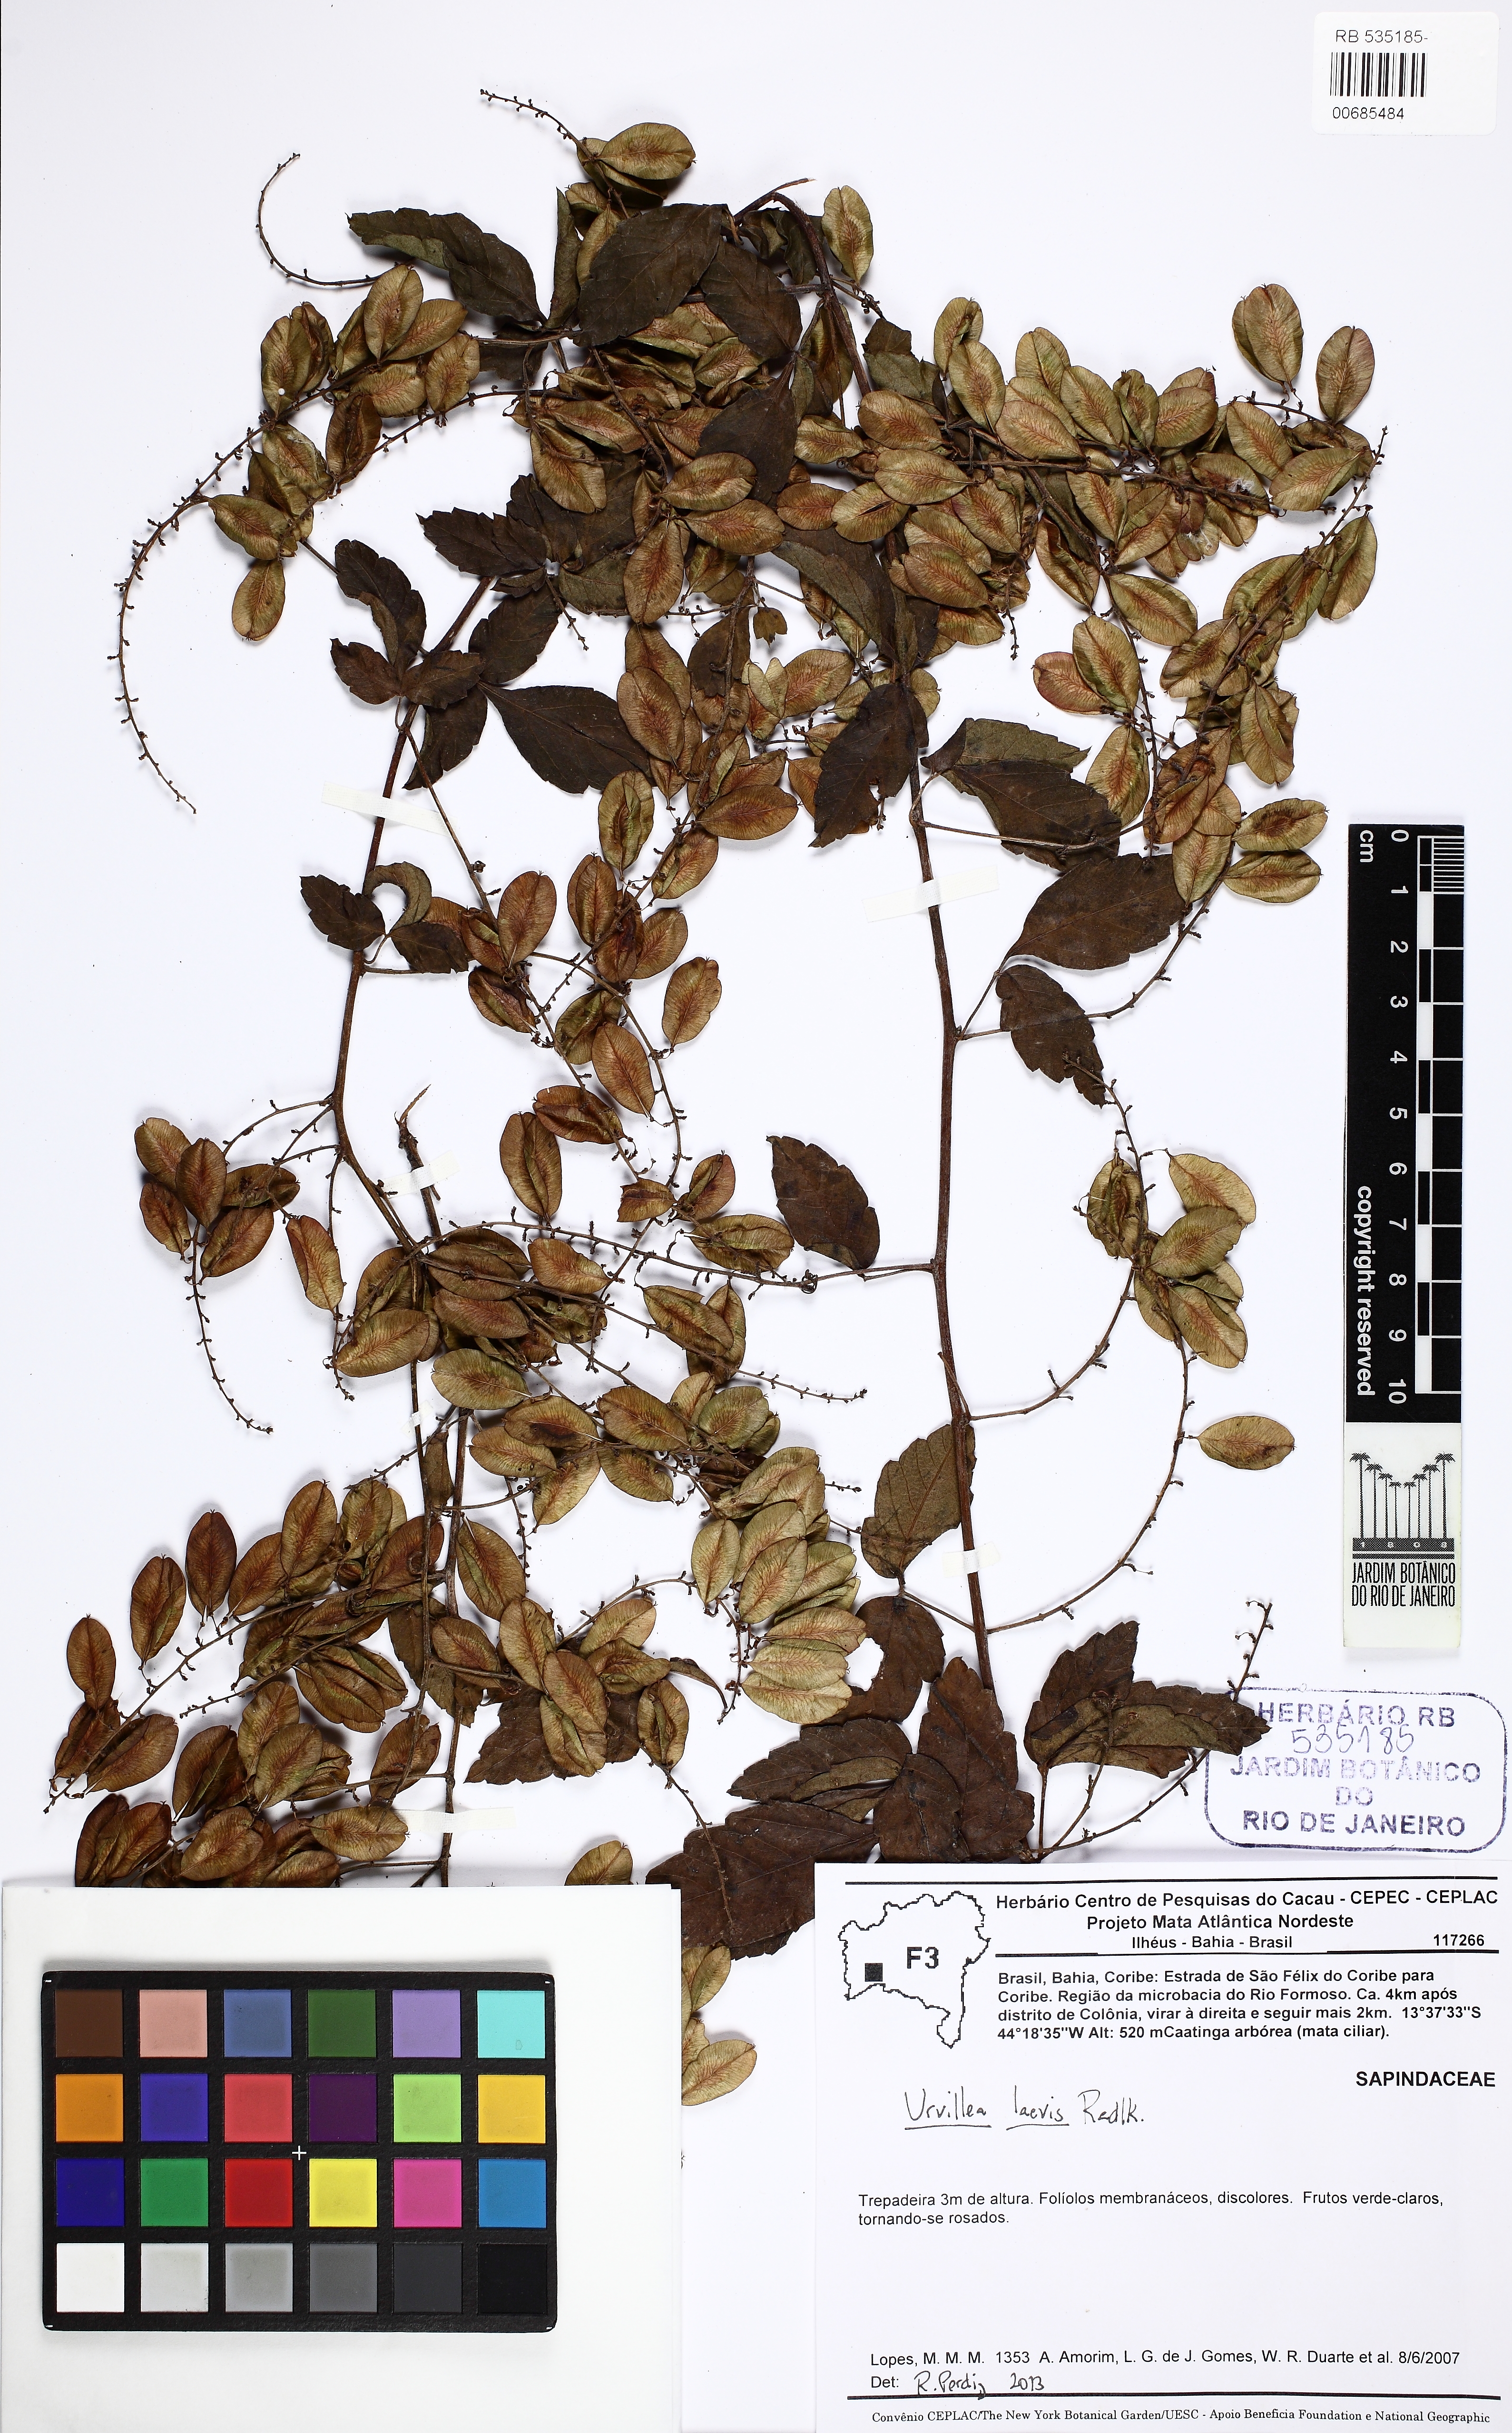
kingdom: Plantae
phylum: Tracheophyta
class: Magnoliopsida
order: Sapindales
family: Sapindaceae
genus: Urvillea
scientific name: Urvillea laevis
